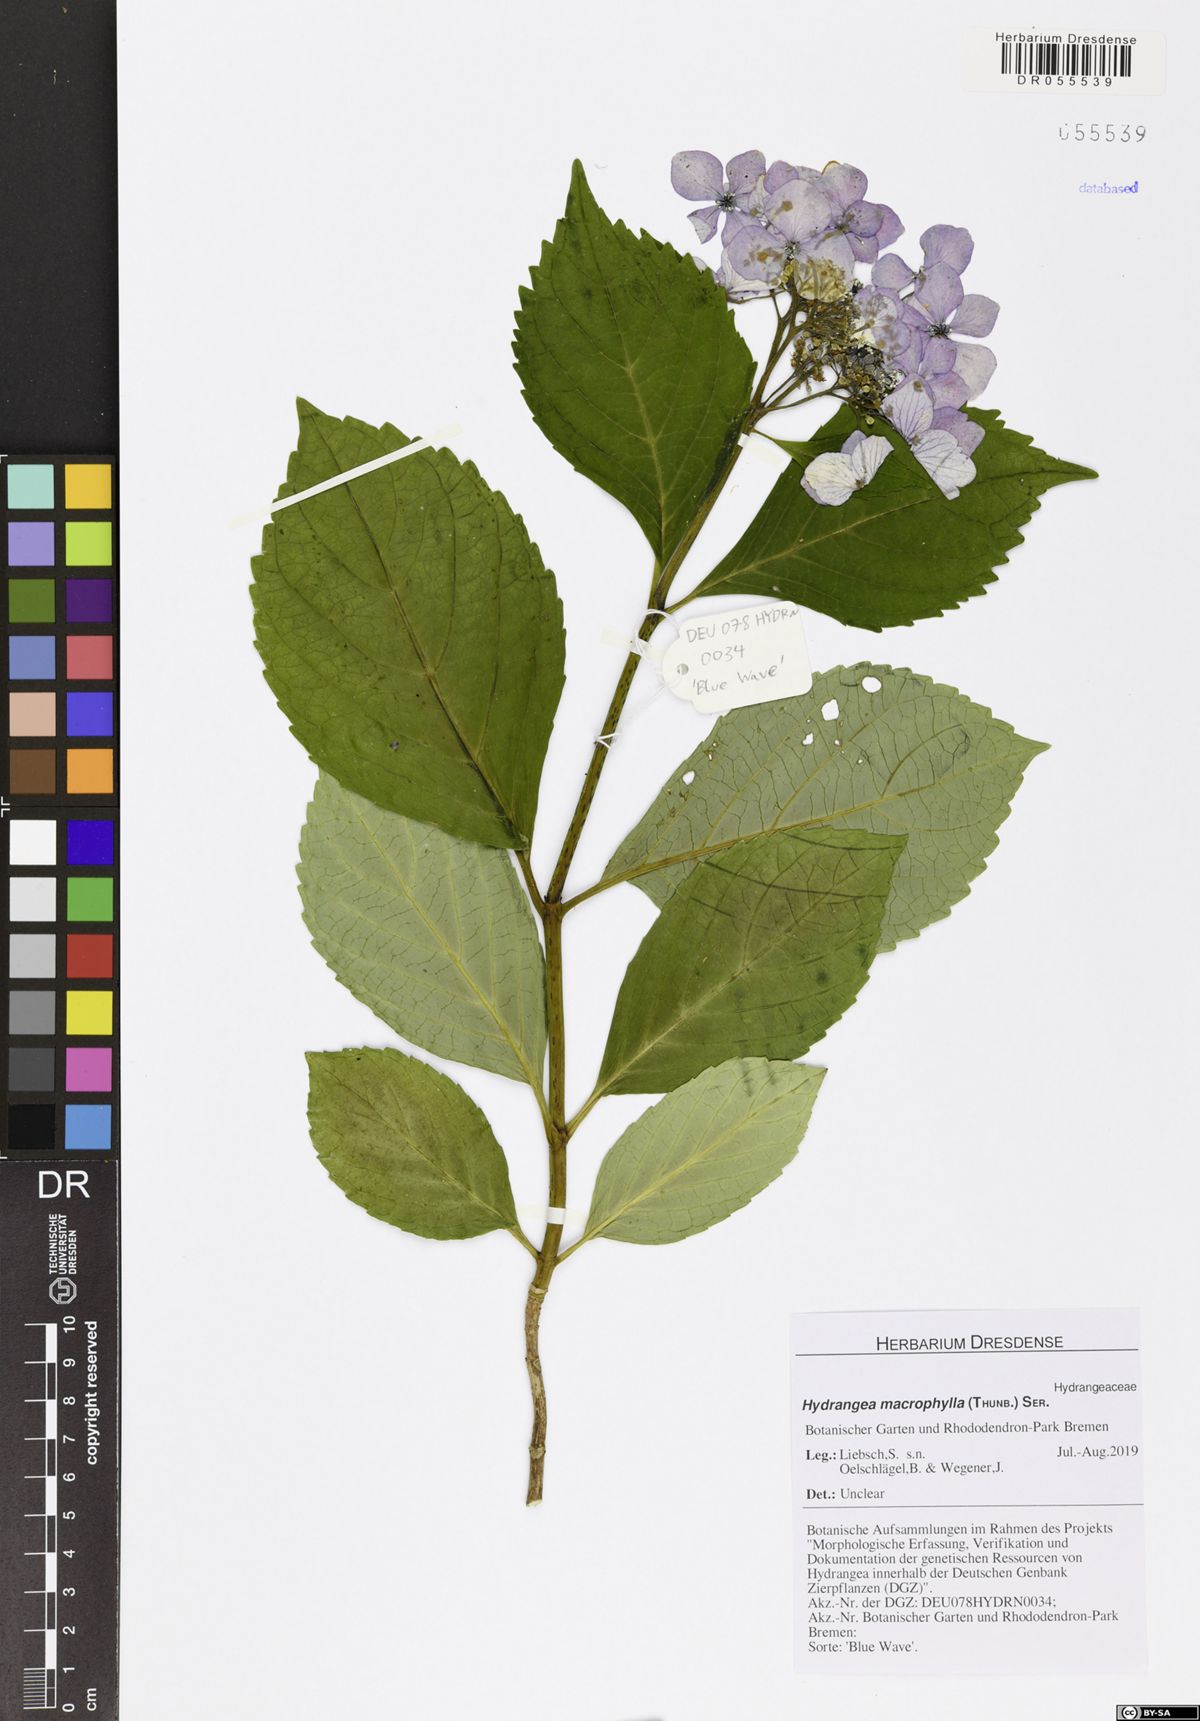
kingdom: Plantae
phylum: Tracheophyta
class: Magnoliopsida
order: Cornales
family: Hydrangeaceae
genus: Hydrangea
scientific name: Hydrangea macrophylla
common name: Hydrangea
